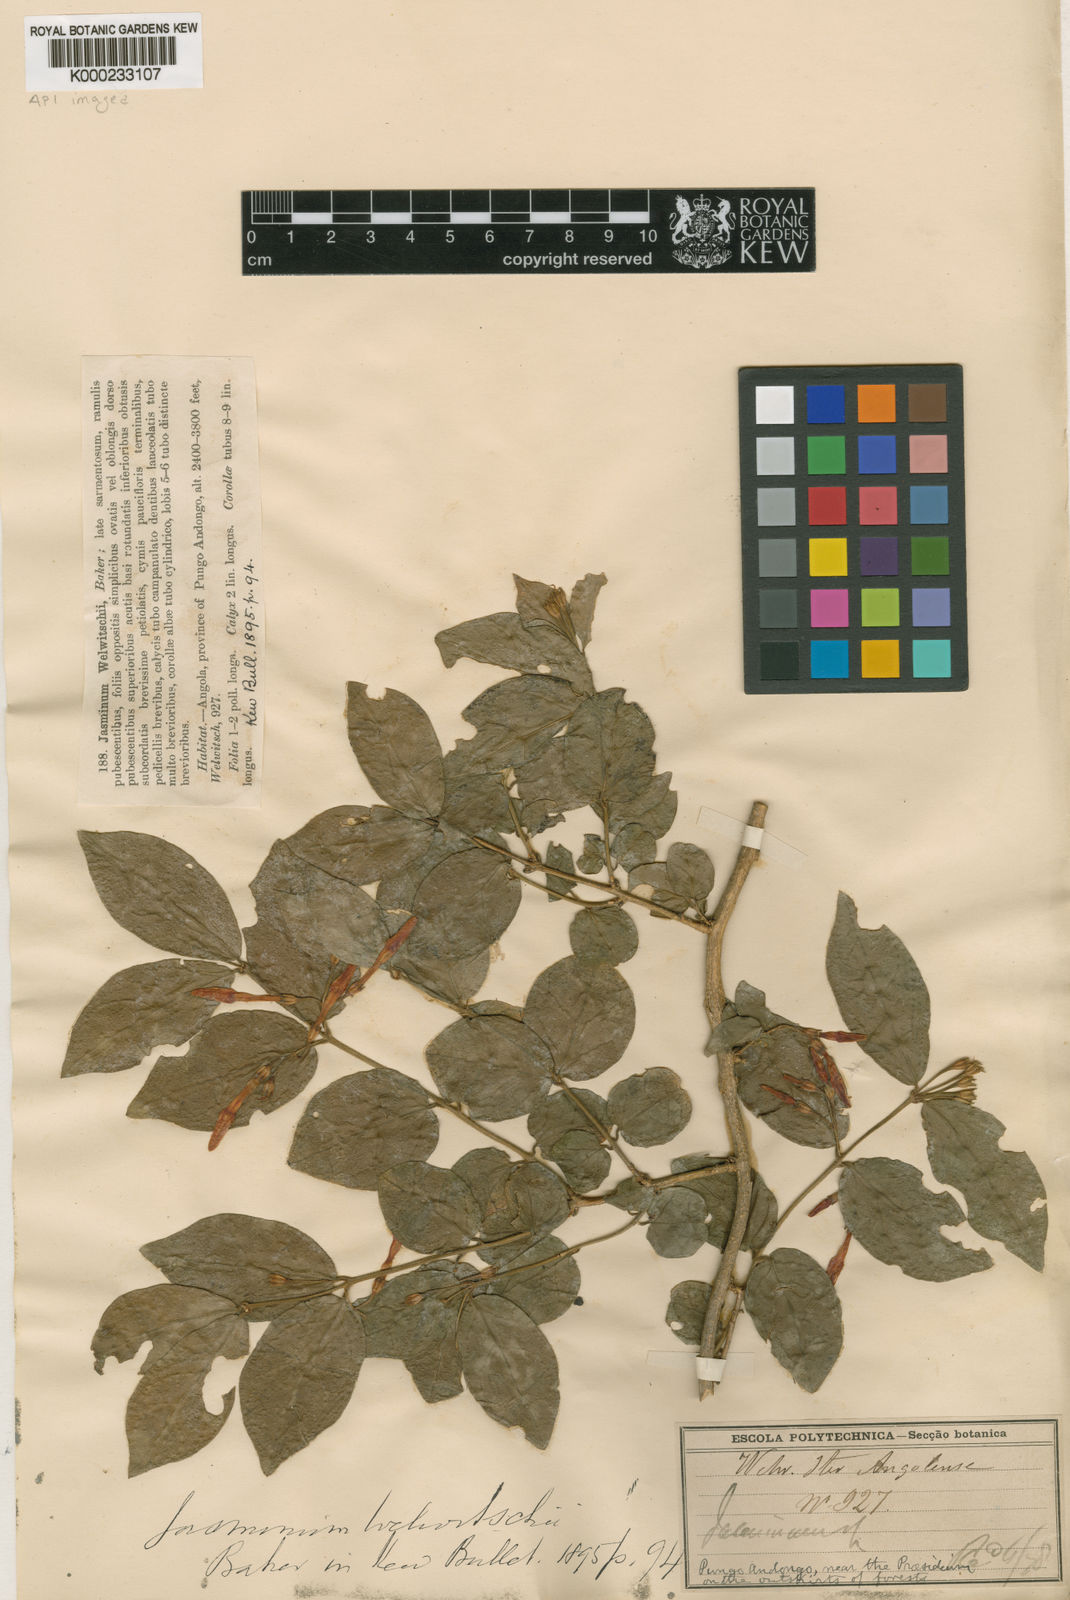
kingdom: Plantae
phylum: Tracheophyta
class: Magnoliopsida
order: Lamiales
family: Oleaceae
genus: Jasminum
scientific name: Jasminum pauciflorum
